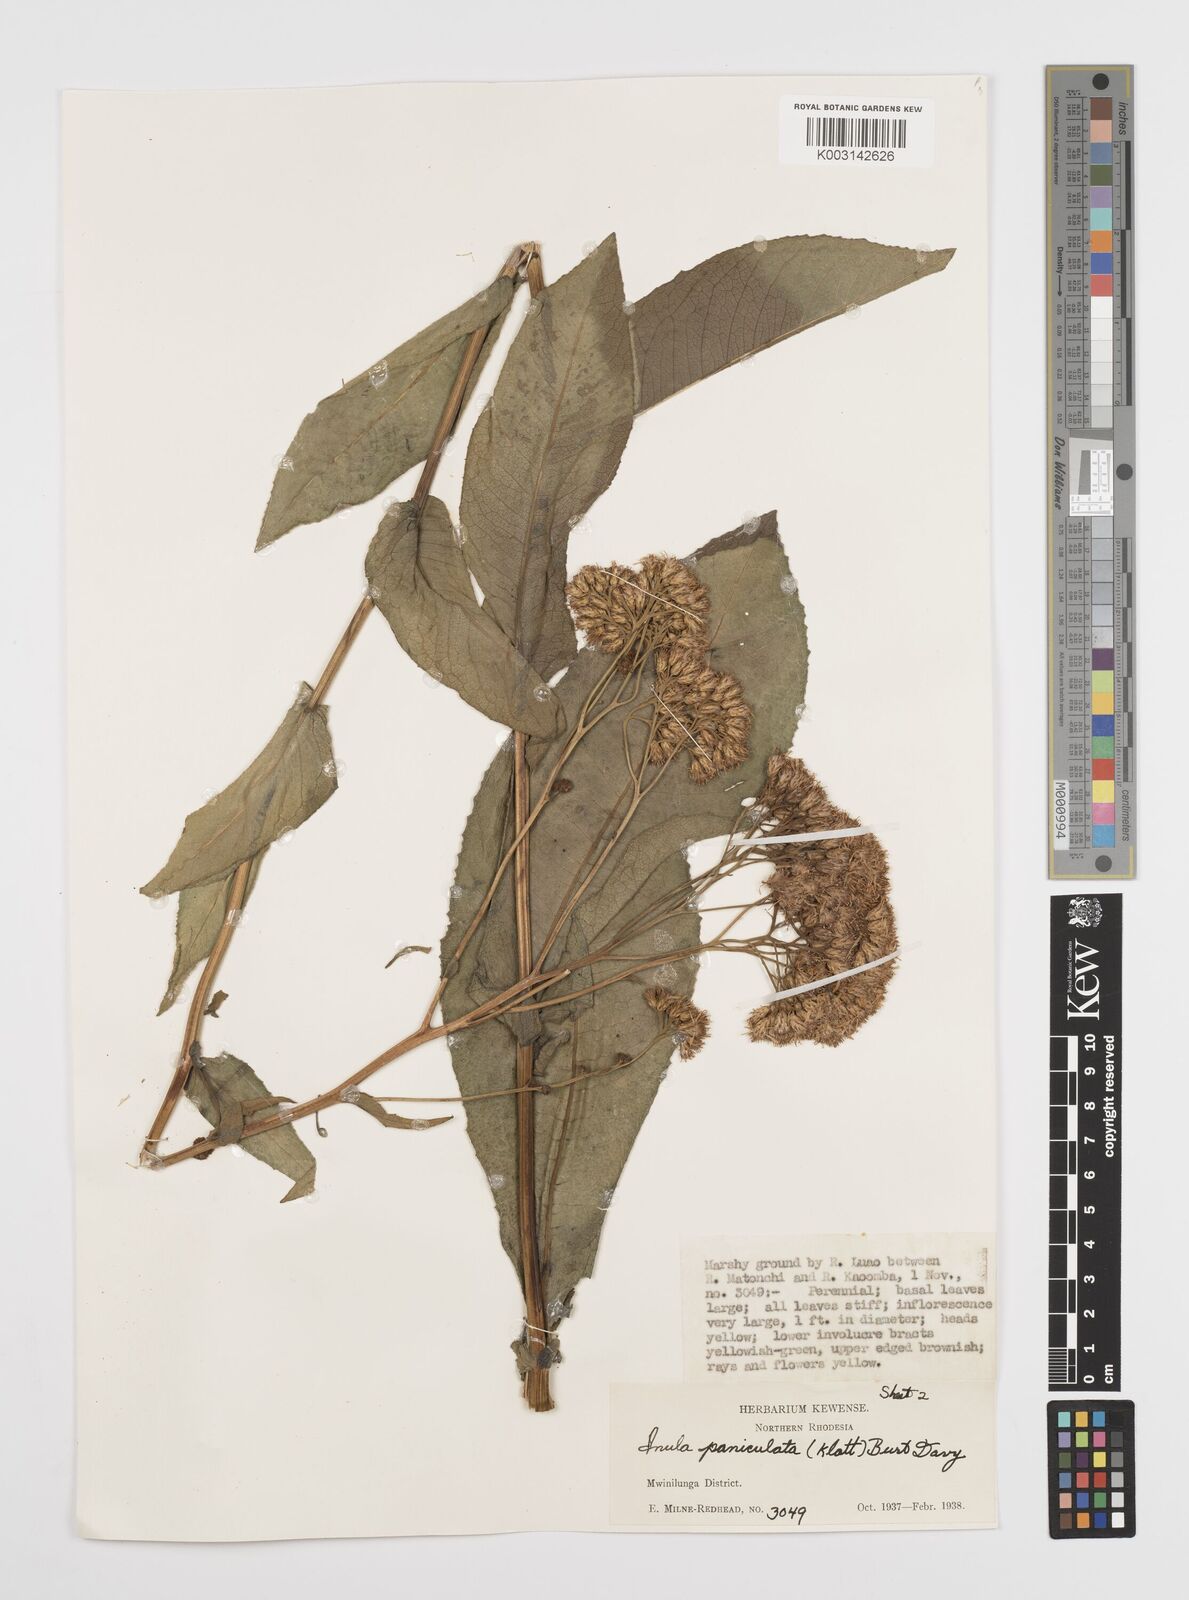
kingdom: Plantae
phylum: Tracheophyta
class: Magnoliopsida
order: Asterales
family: Asteraceae
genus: Monactinocephalus
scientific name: Monactinocephalus paniculatus
